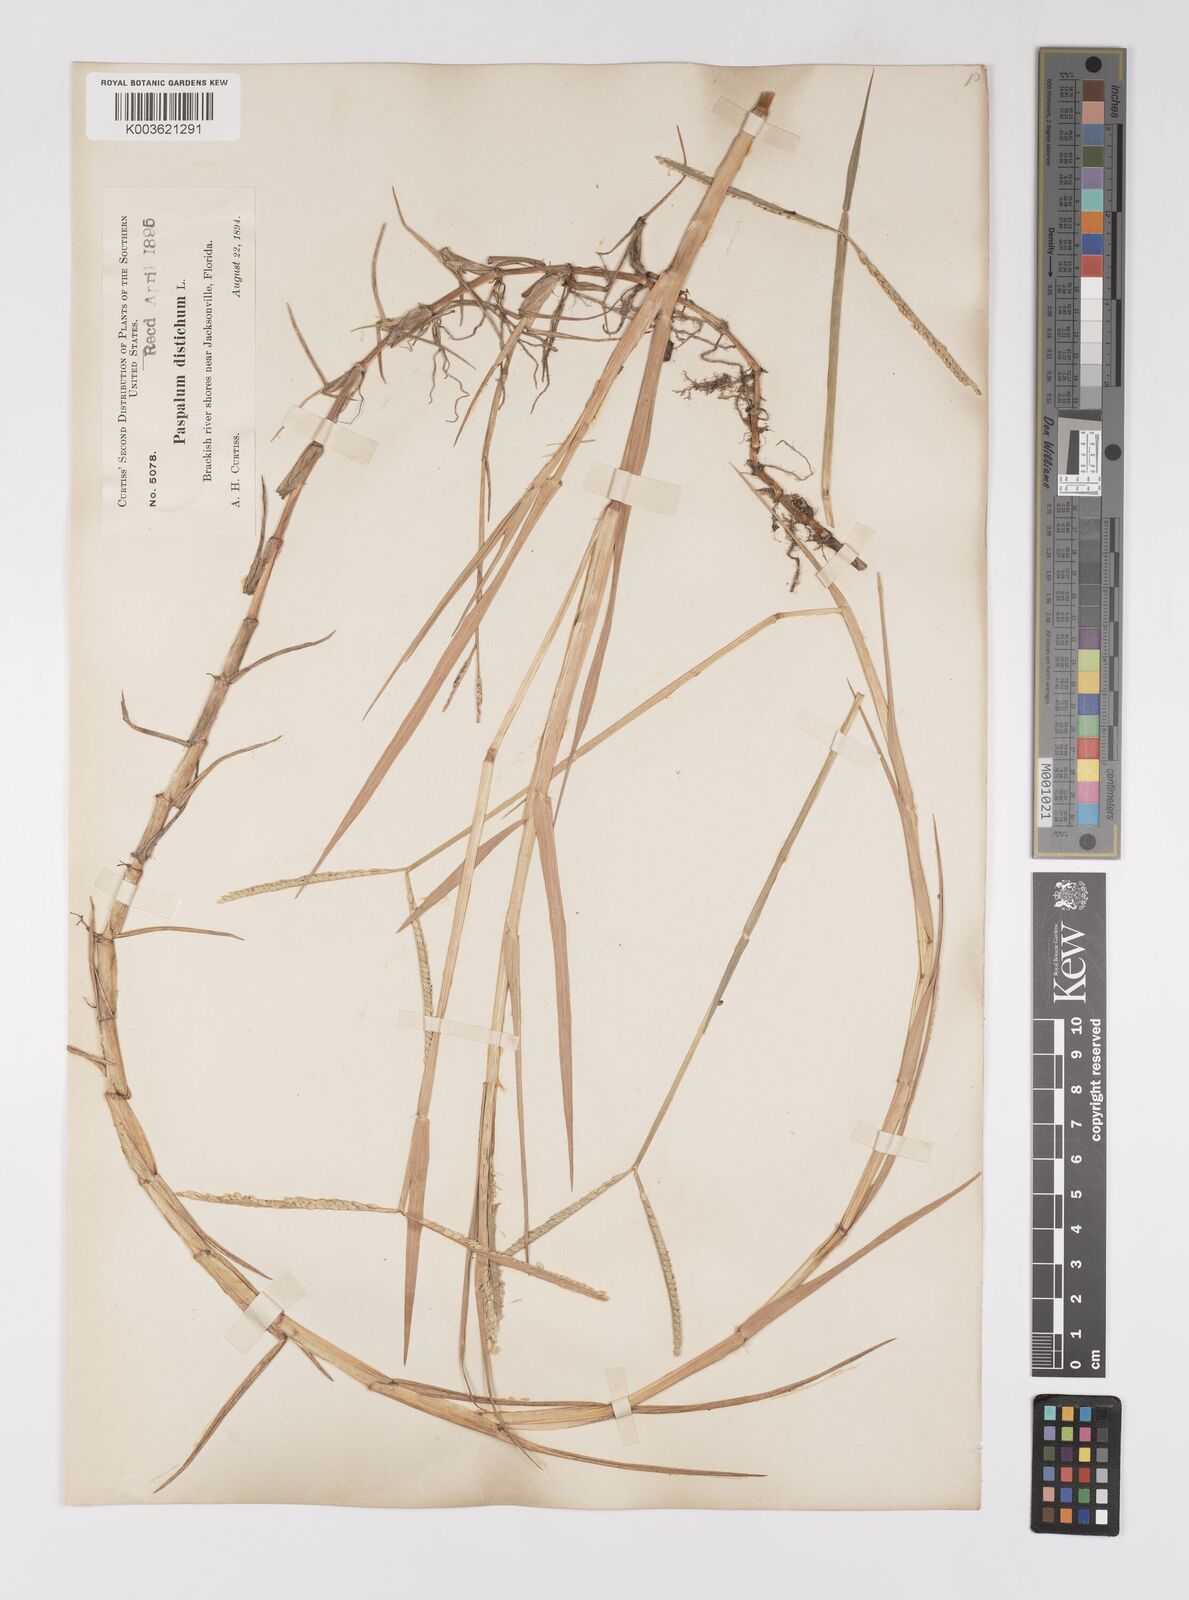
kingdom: Plantae
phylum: Tracheophyta
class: Liliopsida
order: Poales
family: Poaceae
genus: Paspalum
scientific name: Paspalum distichum
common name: Knotgrass
